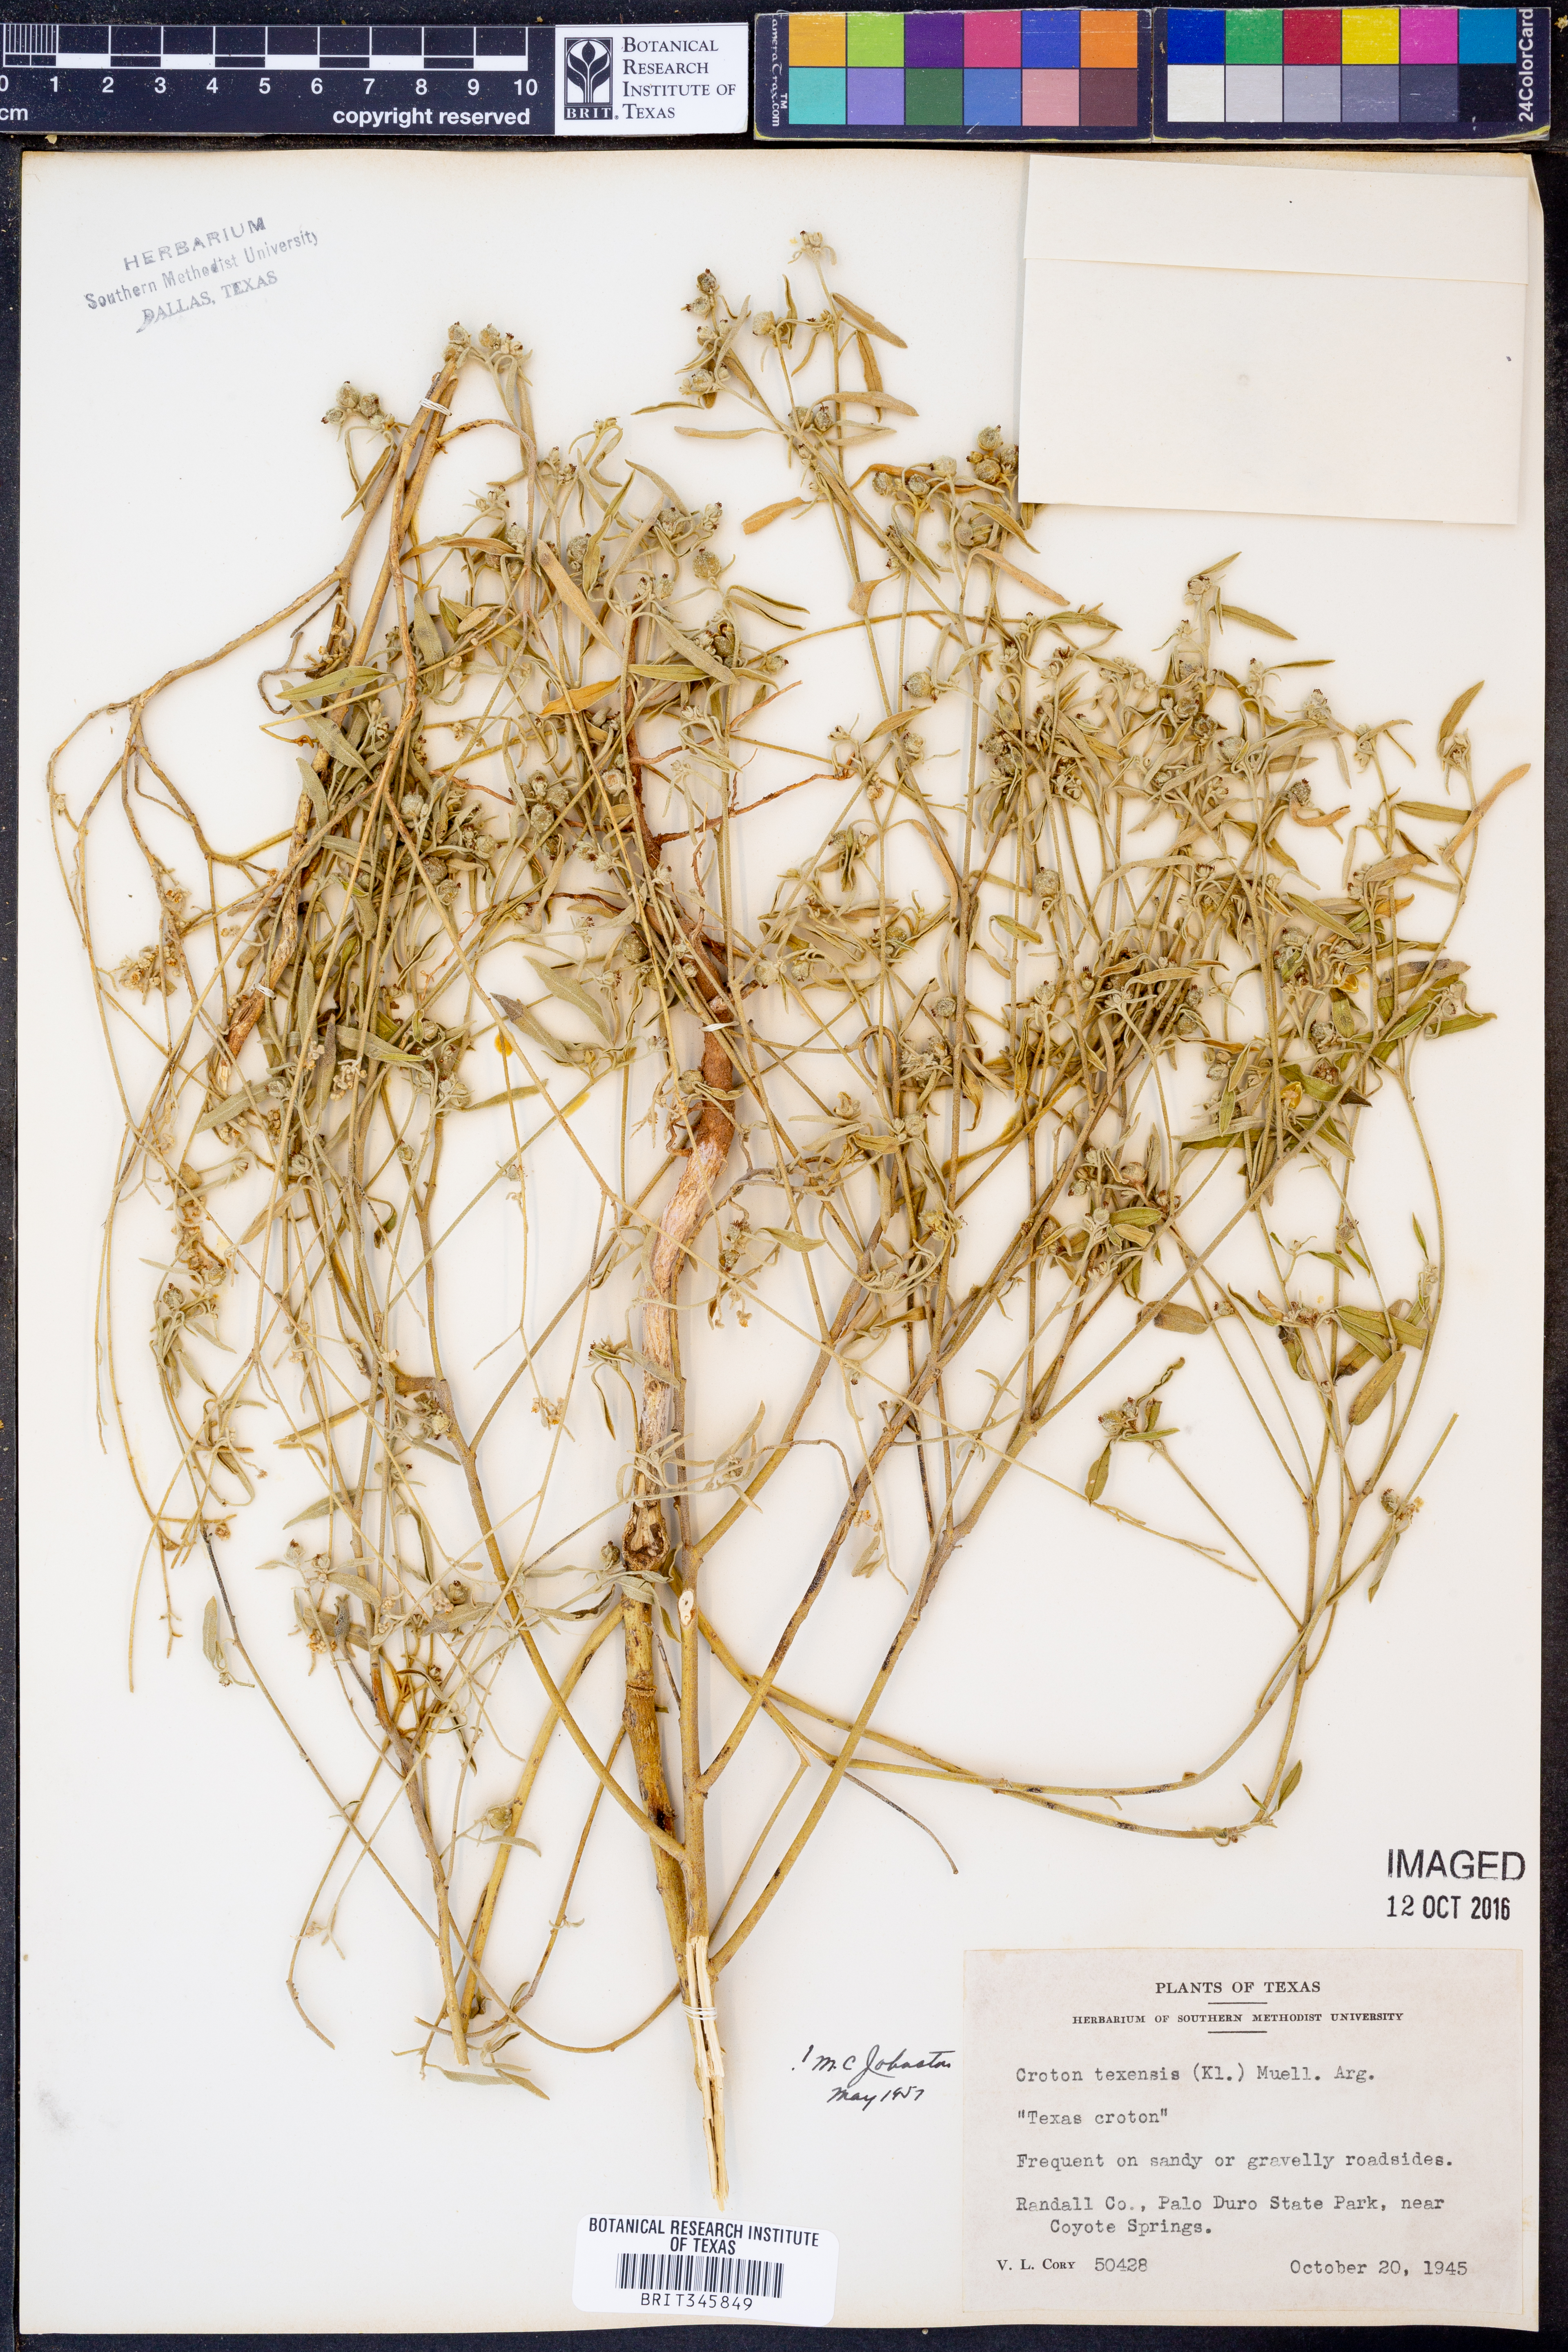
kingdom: Plantae
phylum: Tracheophyta
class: Magnoliopsida
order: Malpighiales
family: Euphorbiaceae
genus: Croton
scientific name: Croton texensis
